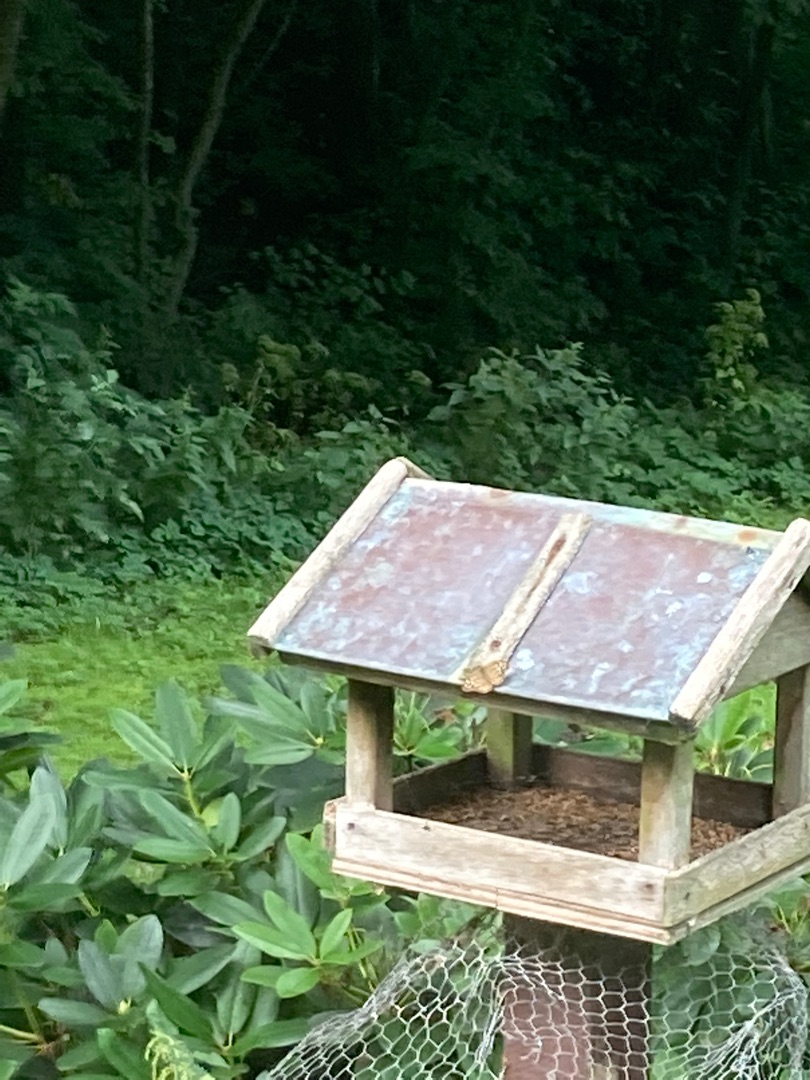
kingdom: Animalia
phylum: Arthropoda
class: Insecta
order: Lepidoptera
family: Nymphalidae
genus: Pararge
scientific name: Pararge aegeria
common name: Skovrandøje
